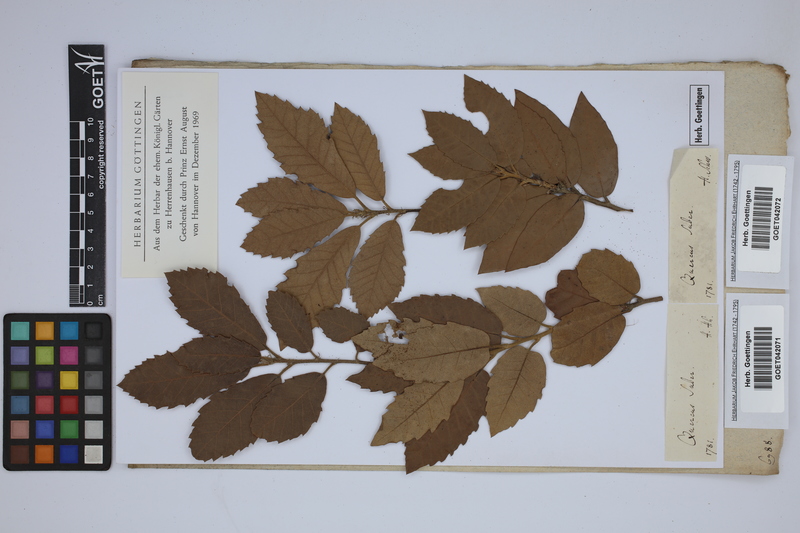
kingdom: Plantae
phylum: Tracheophyta
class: Magnoliopsida
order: Fagales
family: Fagaceae
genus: Quercus
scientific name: Quercus suber
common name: Cork oak
